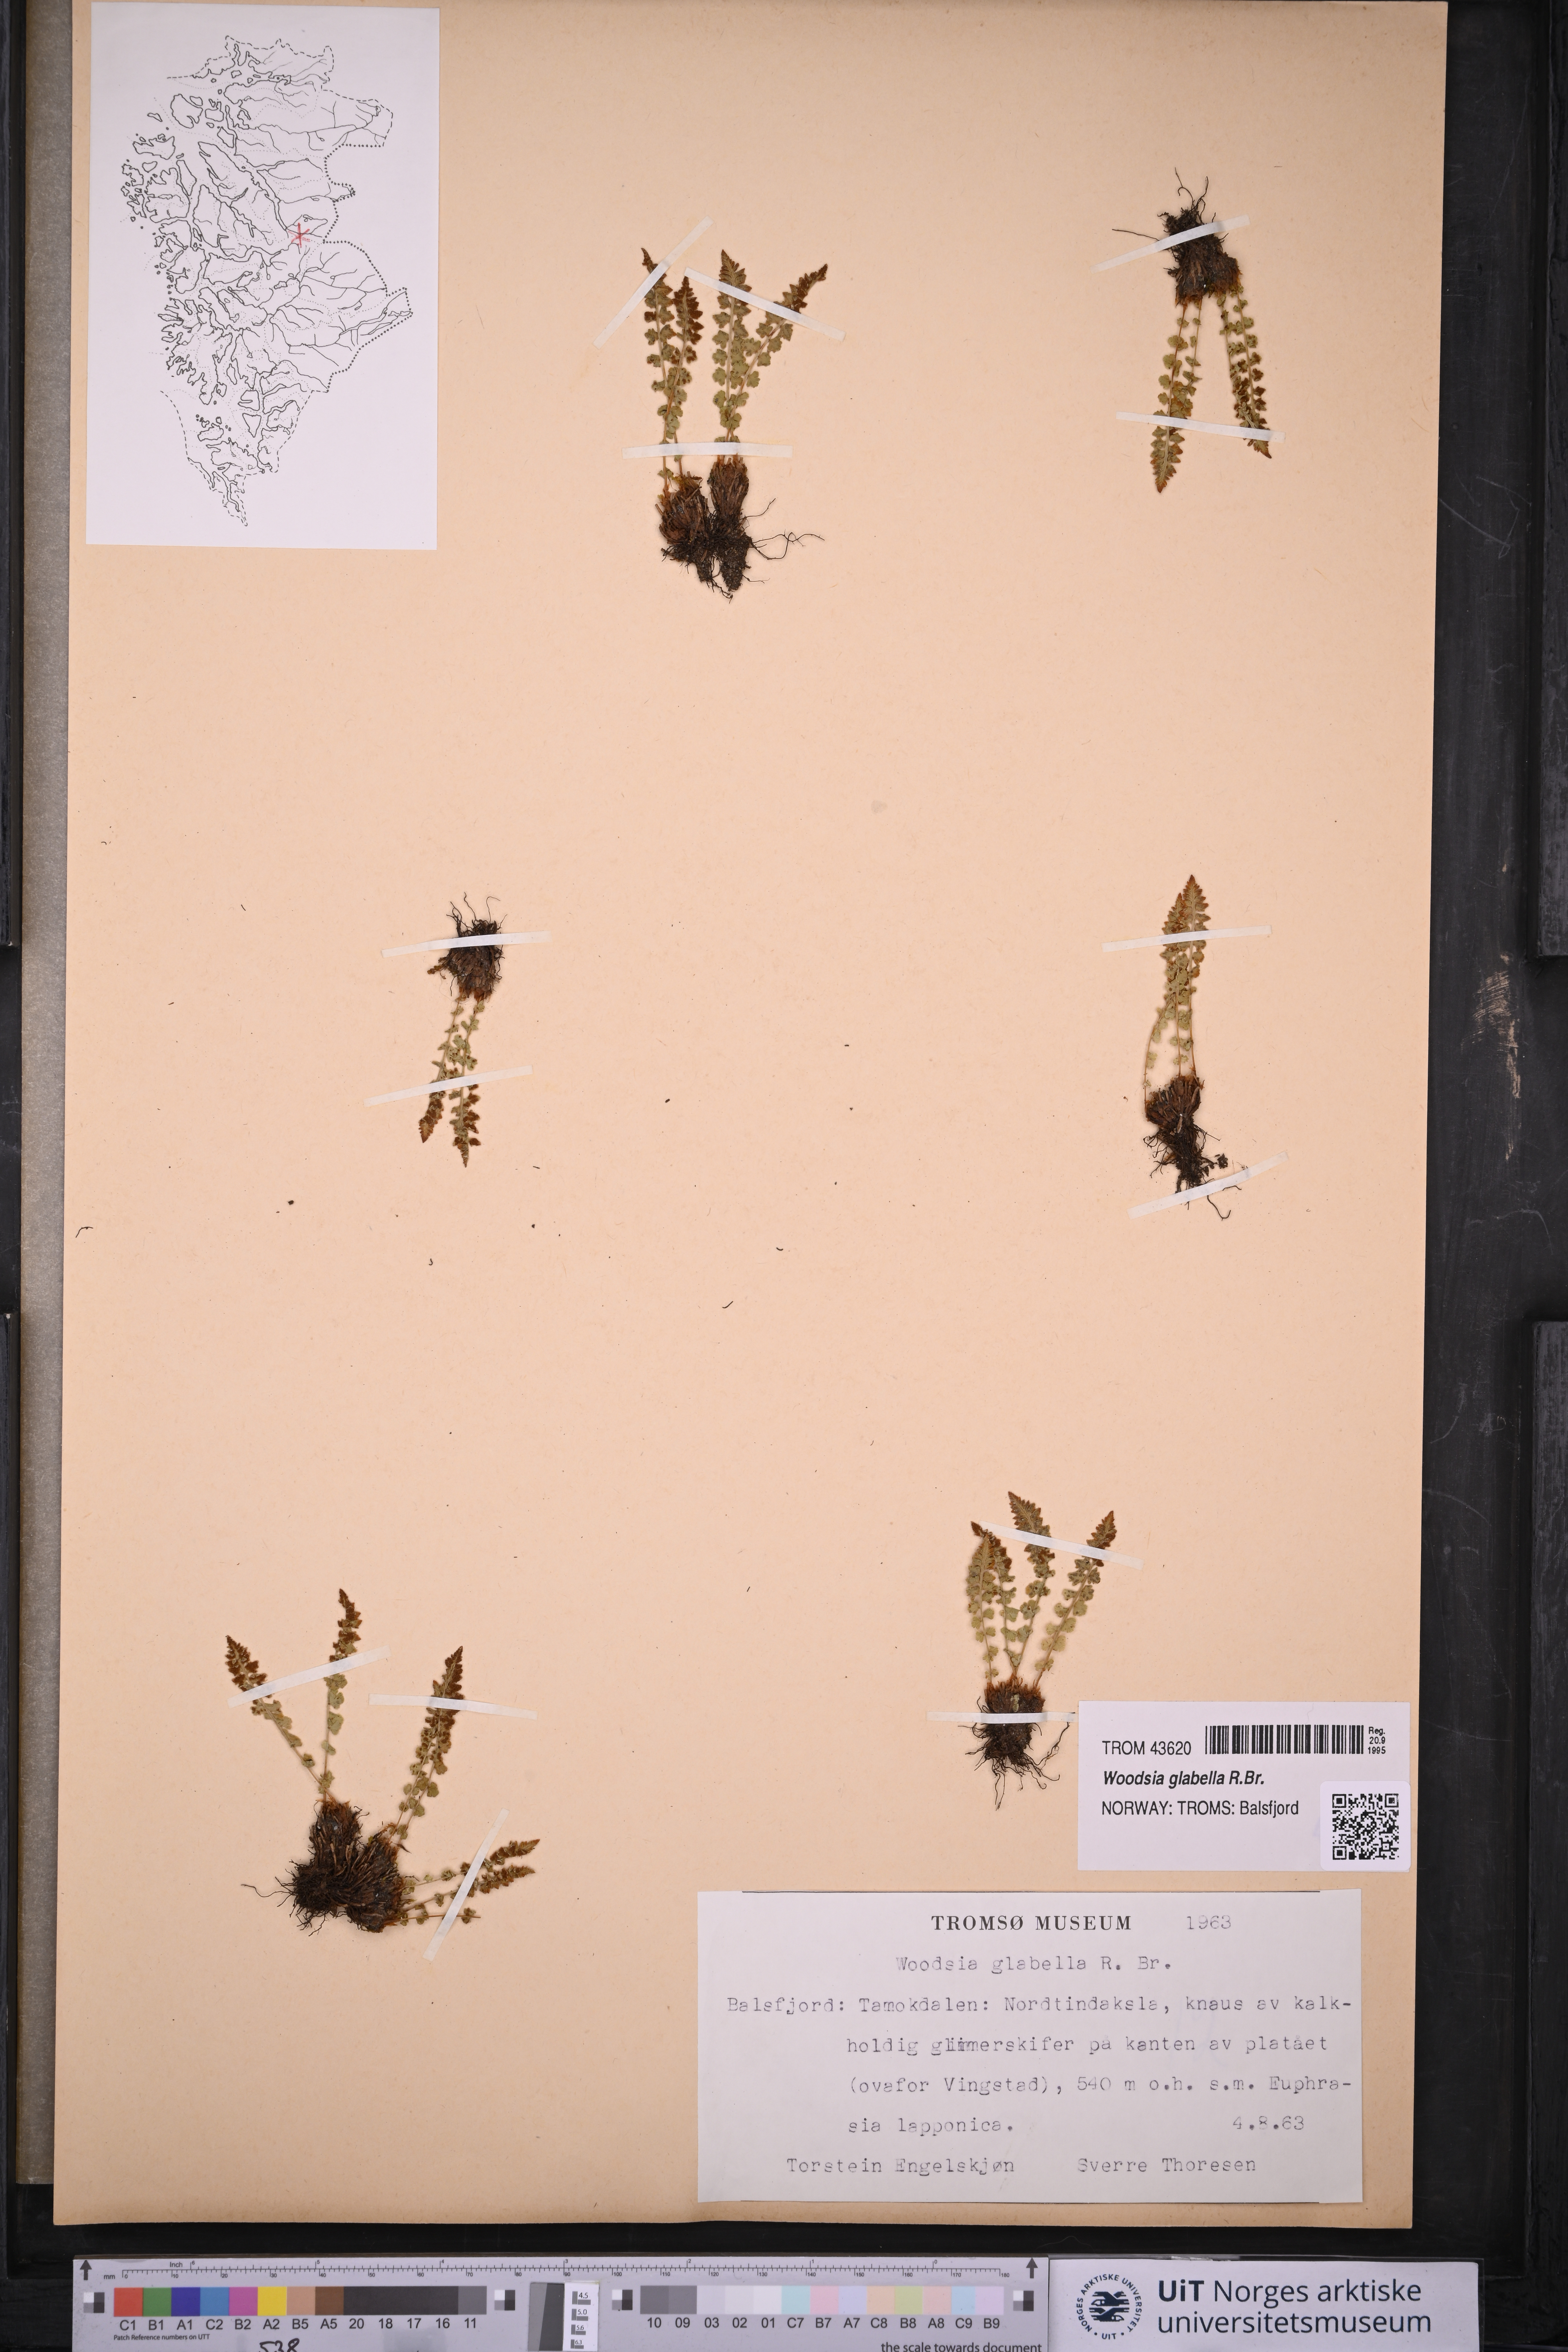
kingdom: Plantae
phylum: Tracheophyta
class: Polypodiopsida
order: Polypodiales
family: Woodsiaceae
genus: Woodsia
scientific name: Woodsia glabella
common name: Smooth woodsia
